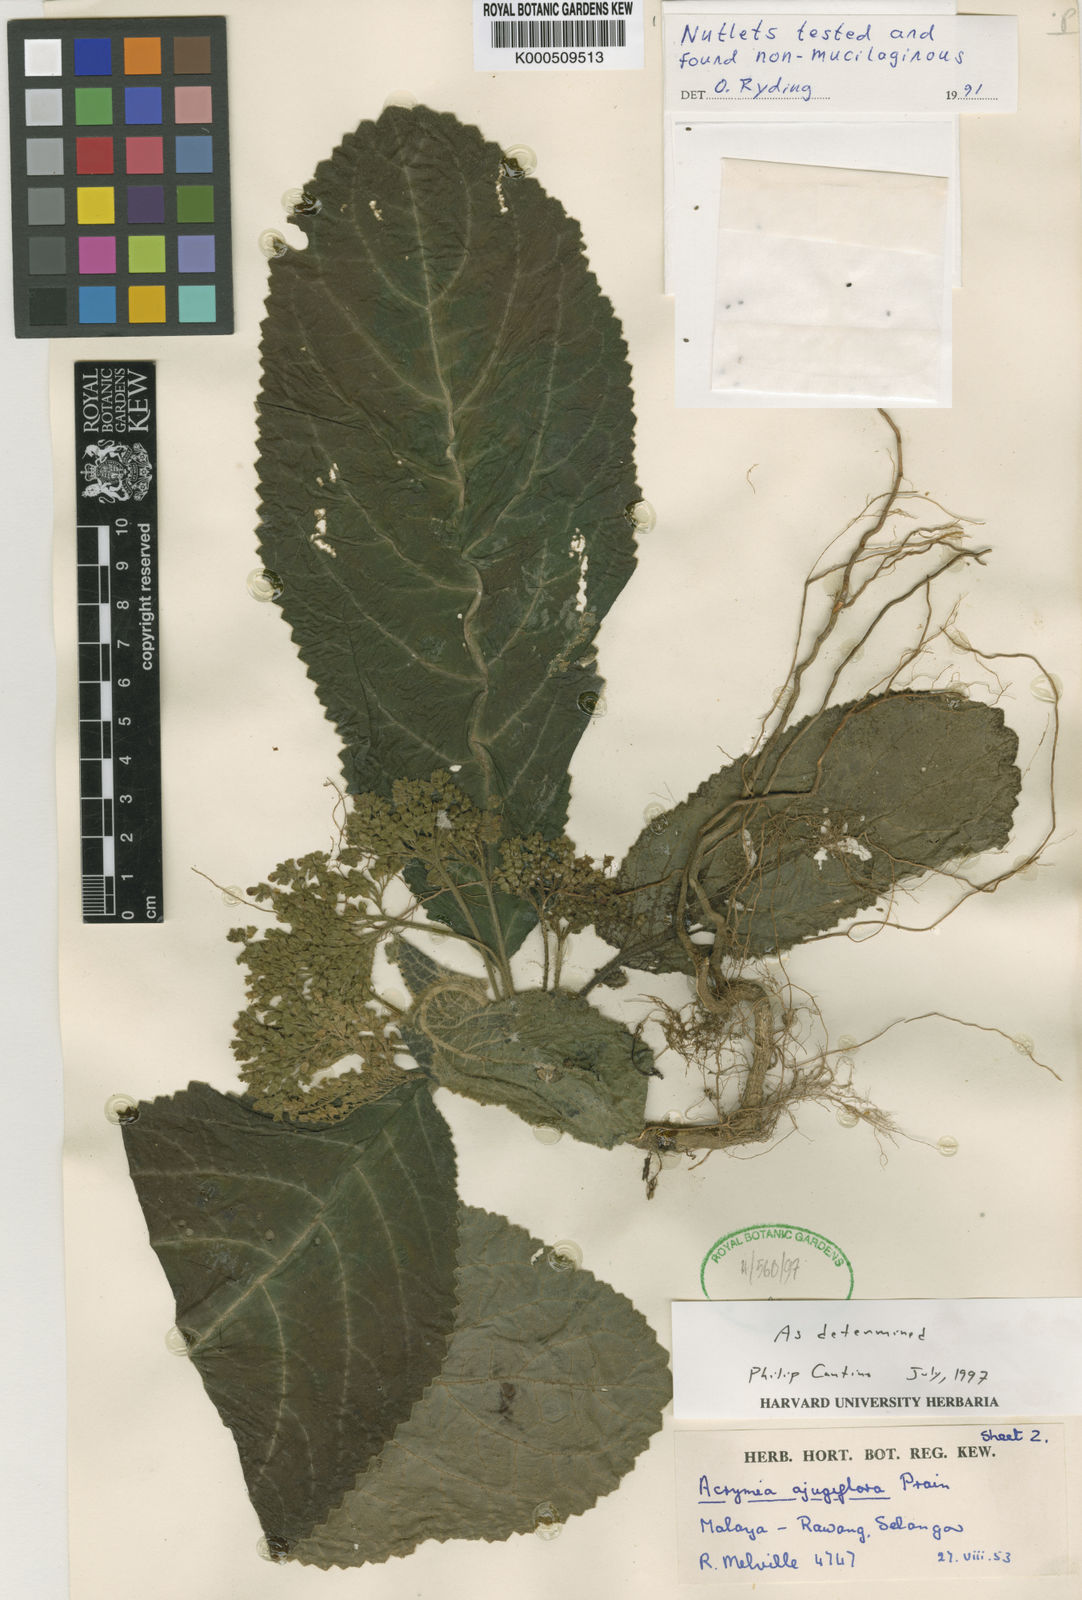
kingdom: Plantae
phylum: Tracheophyta
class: Magnoliopsida
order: Lamiales
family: Lamiaceae
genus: Acrymia
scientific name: Acrymia ajugiflora
